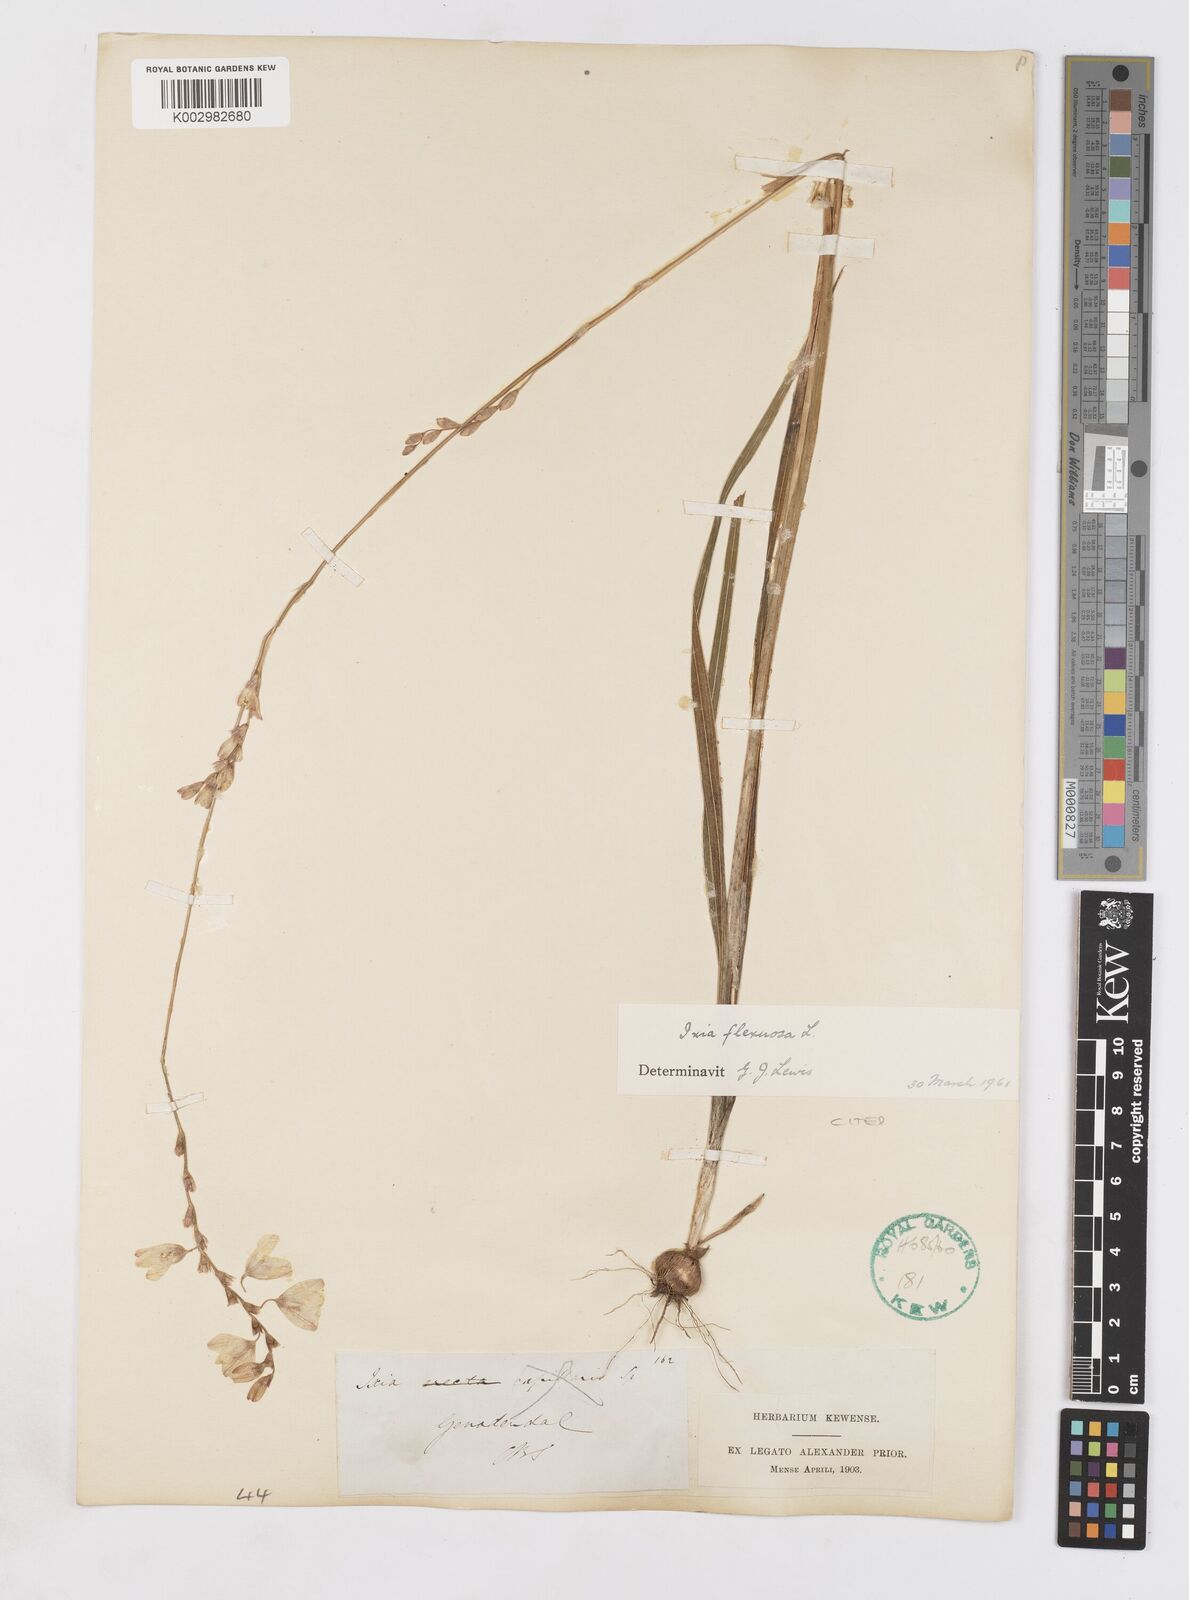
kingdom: Plantae
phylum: Tracheophyta
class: Liliopsida
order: Asparagales
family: Iridaceae
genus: Ixia
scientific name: Ixia flexuosa
